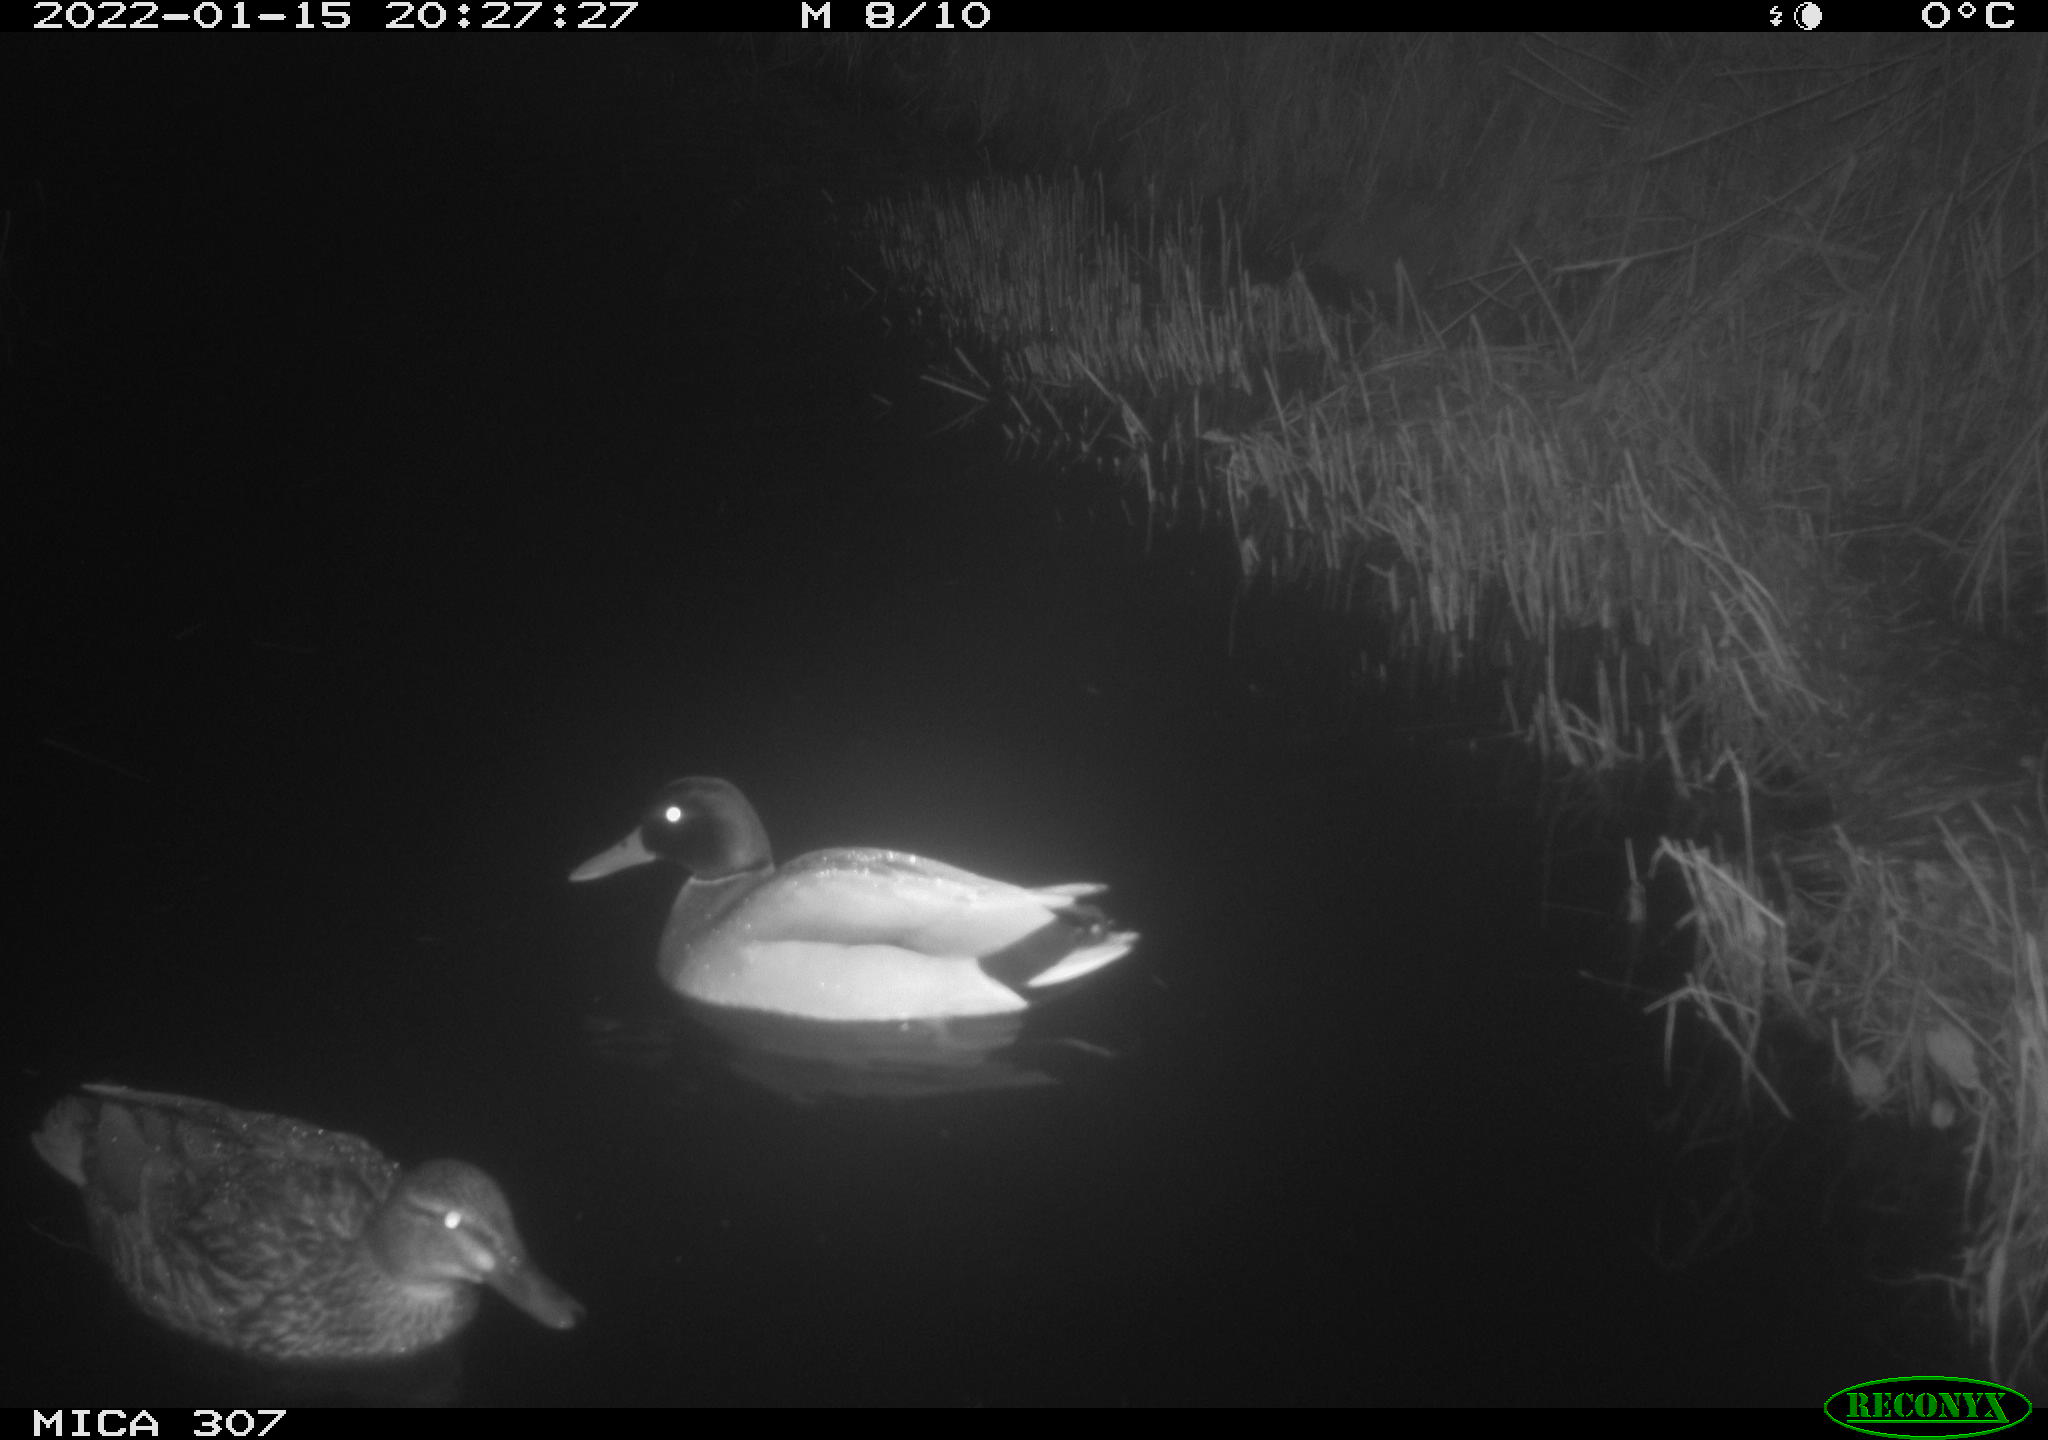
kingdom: Animalia
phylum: Chordata
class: Aves
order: Anseriformes
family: Anatidae
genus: Anas
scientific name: Anas
